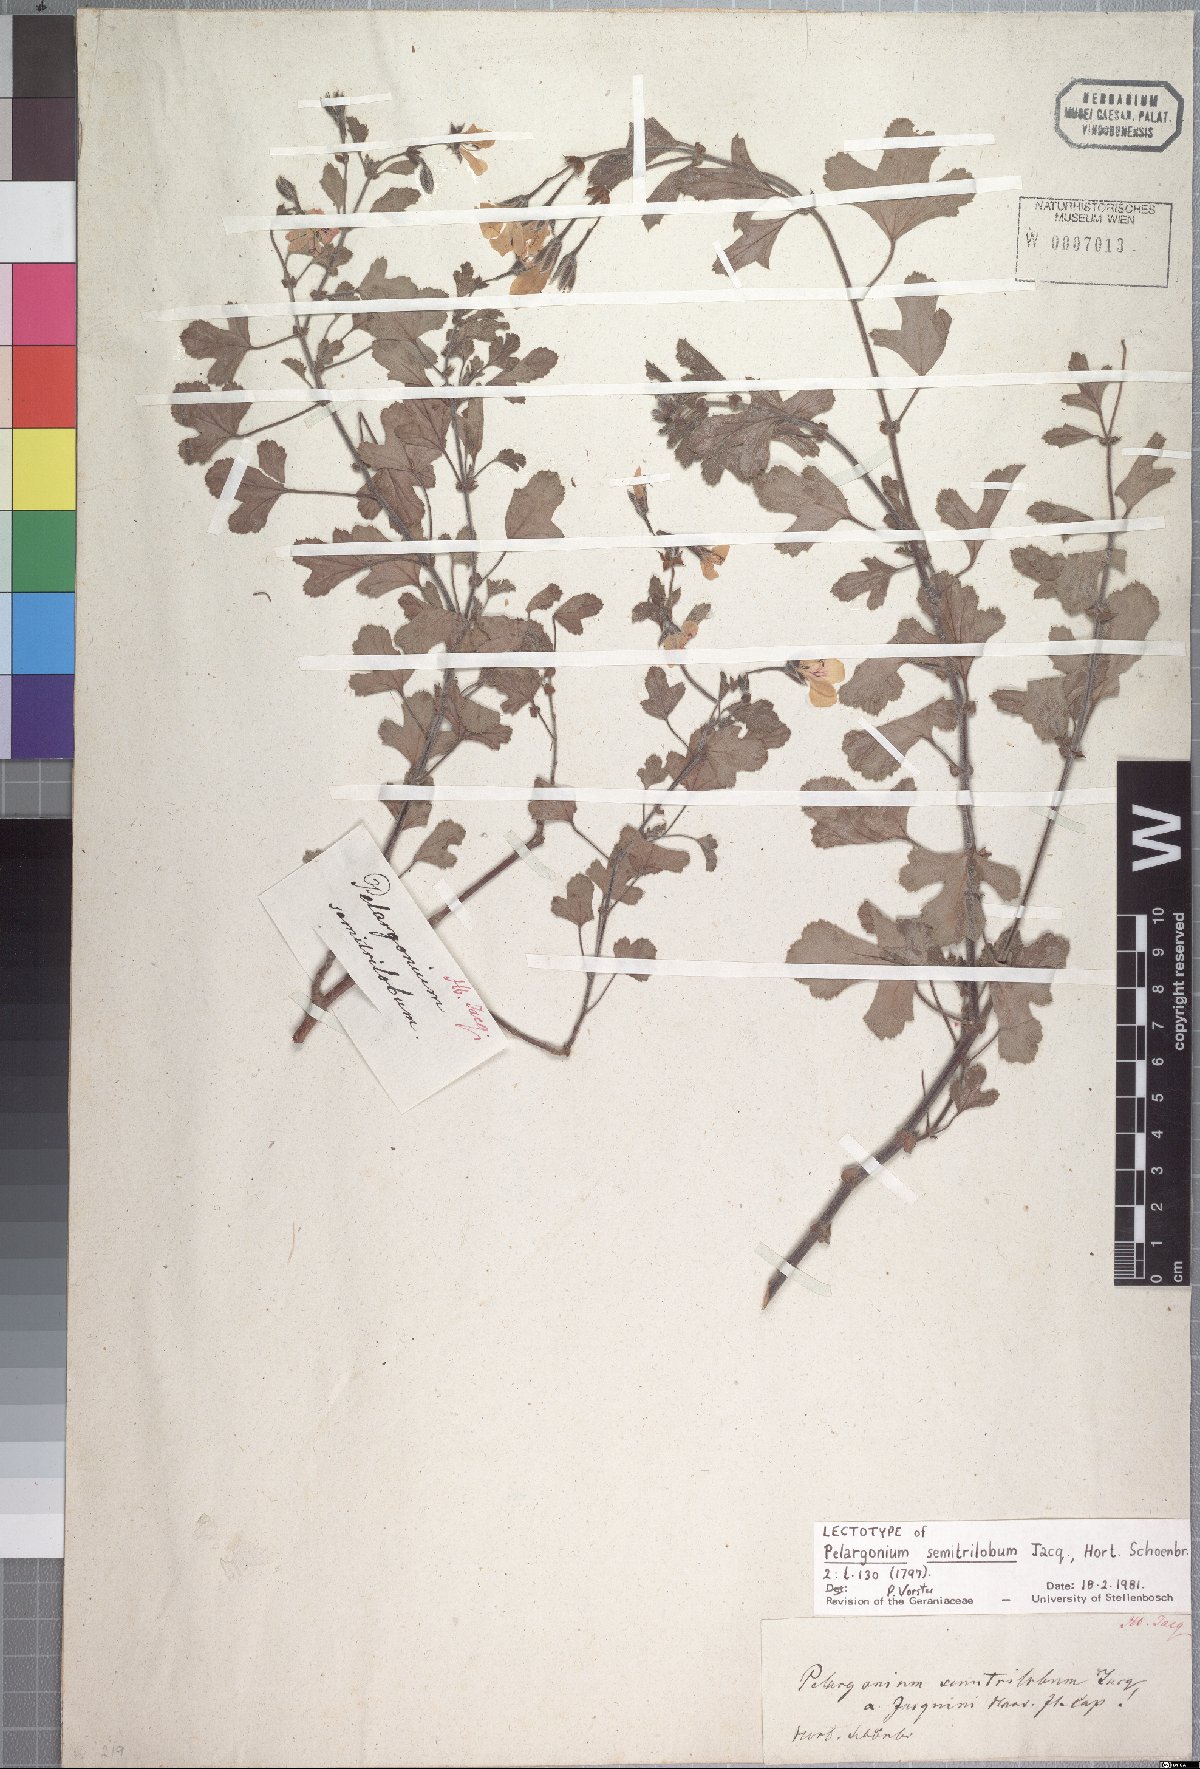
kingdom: Plantae
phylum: Tracheophyta
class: Magnoliopsida
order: Geraniales
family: Geraniaceae
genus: Pelargonium
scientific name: Pelargonium semitrilobum
